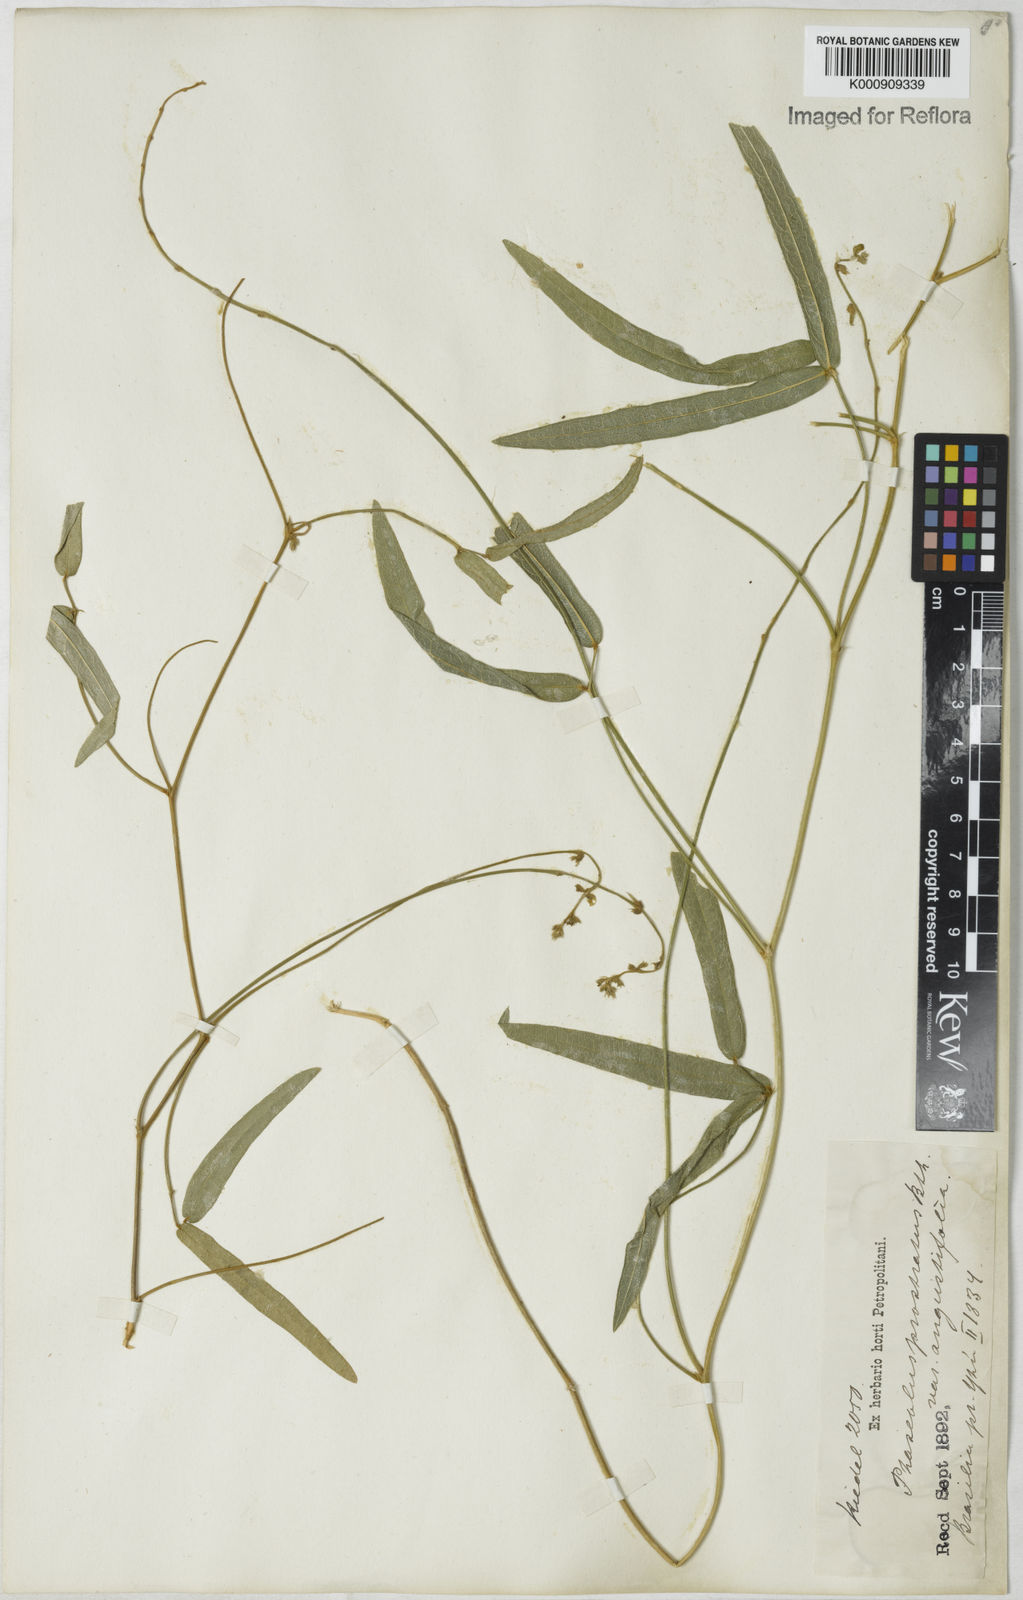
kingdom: Plantae
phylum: Tracheophyta
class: Magnoliopsida
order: Fabales
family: Fabaceae
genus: Macroptilium
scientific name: Macroptilium prostratum
